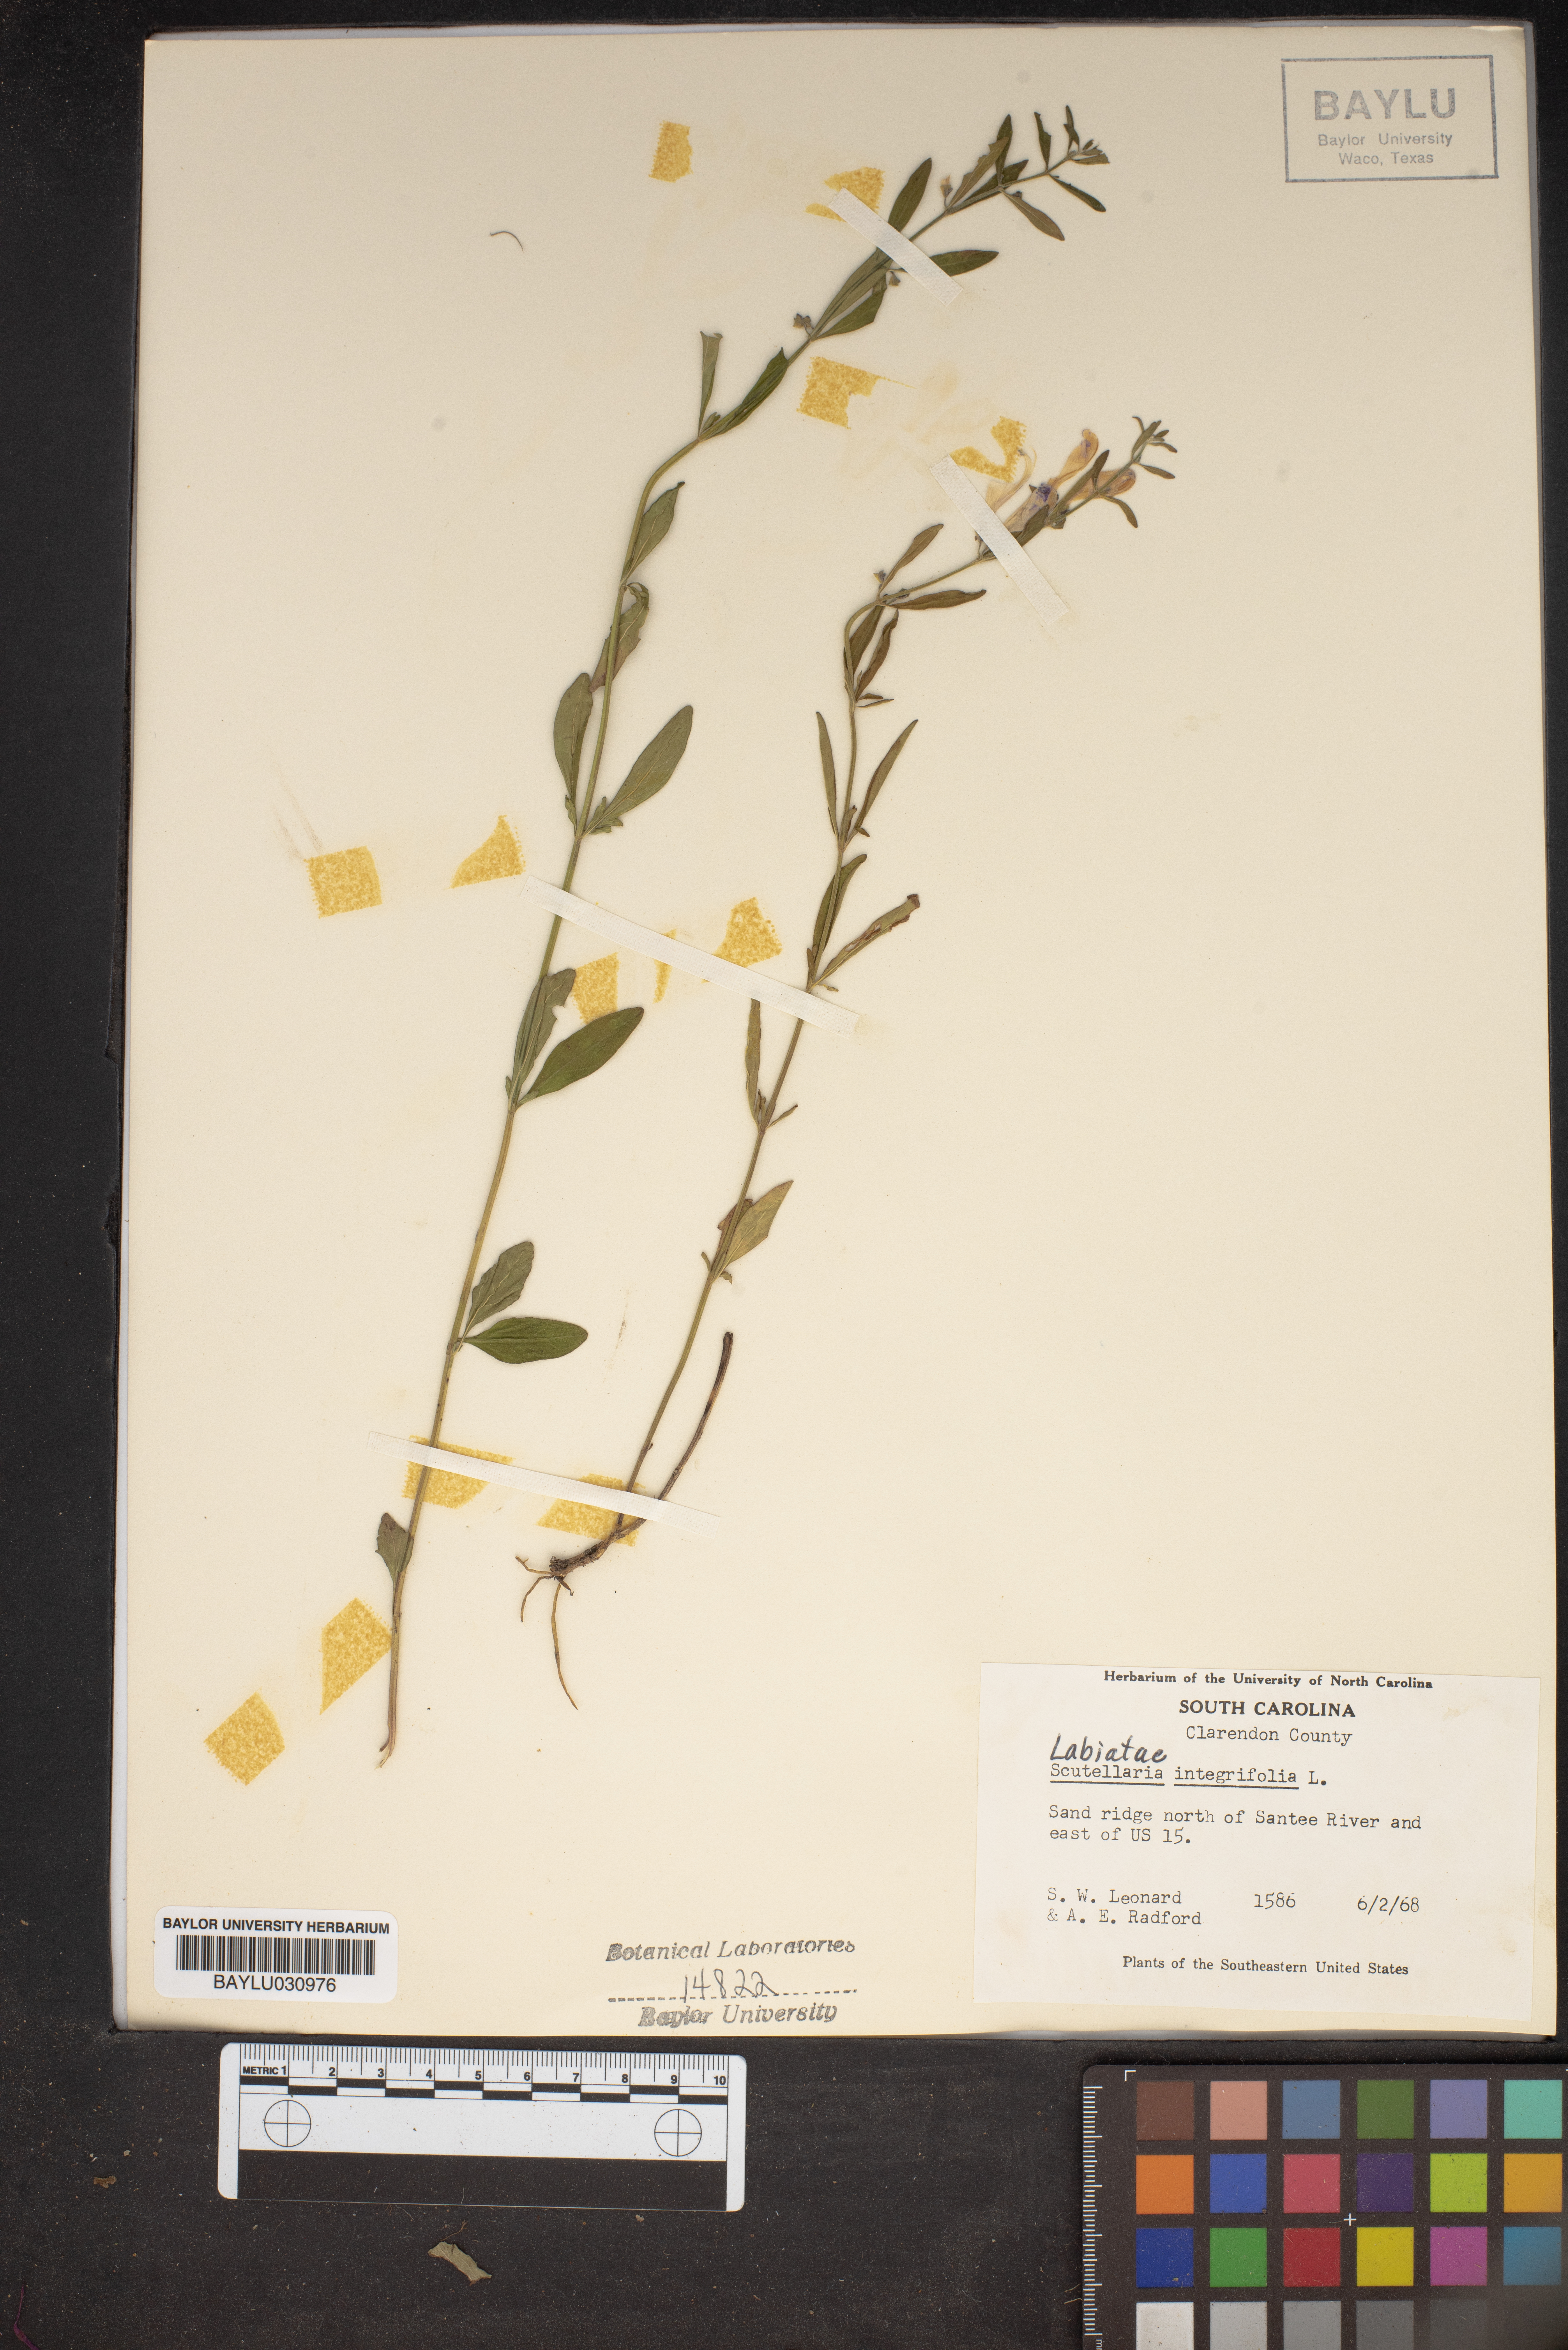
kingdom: Plantae
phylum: Tracheophyta
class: Magnoliopsida
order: Lamiales
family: Lamiaceae
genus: Scutellaria
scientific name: Scutellaria integrifolia
